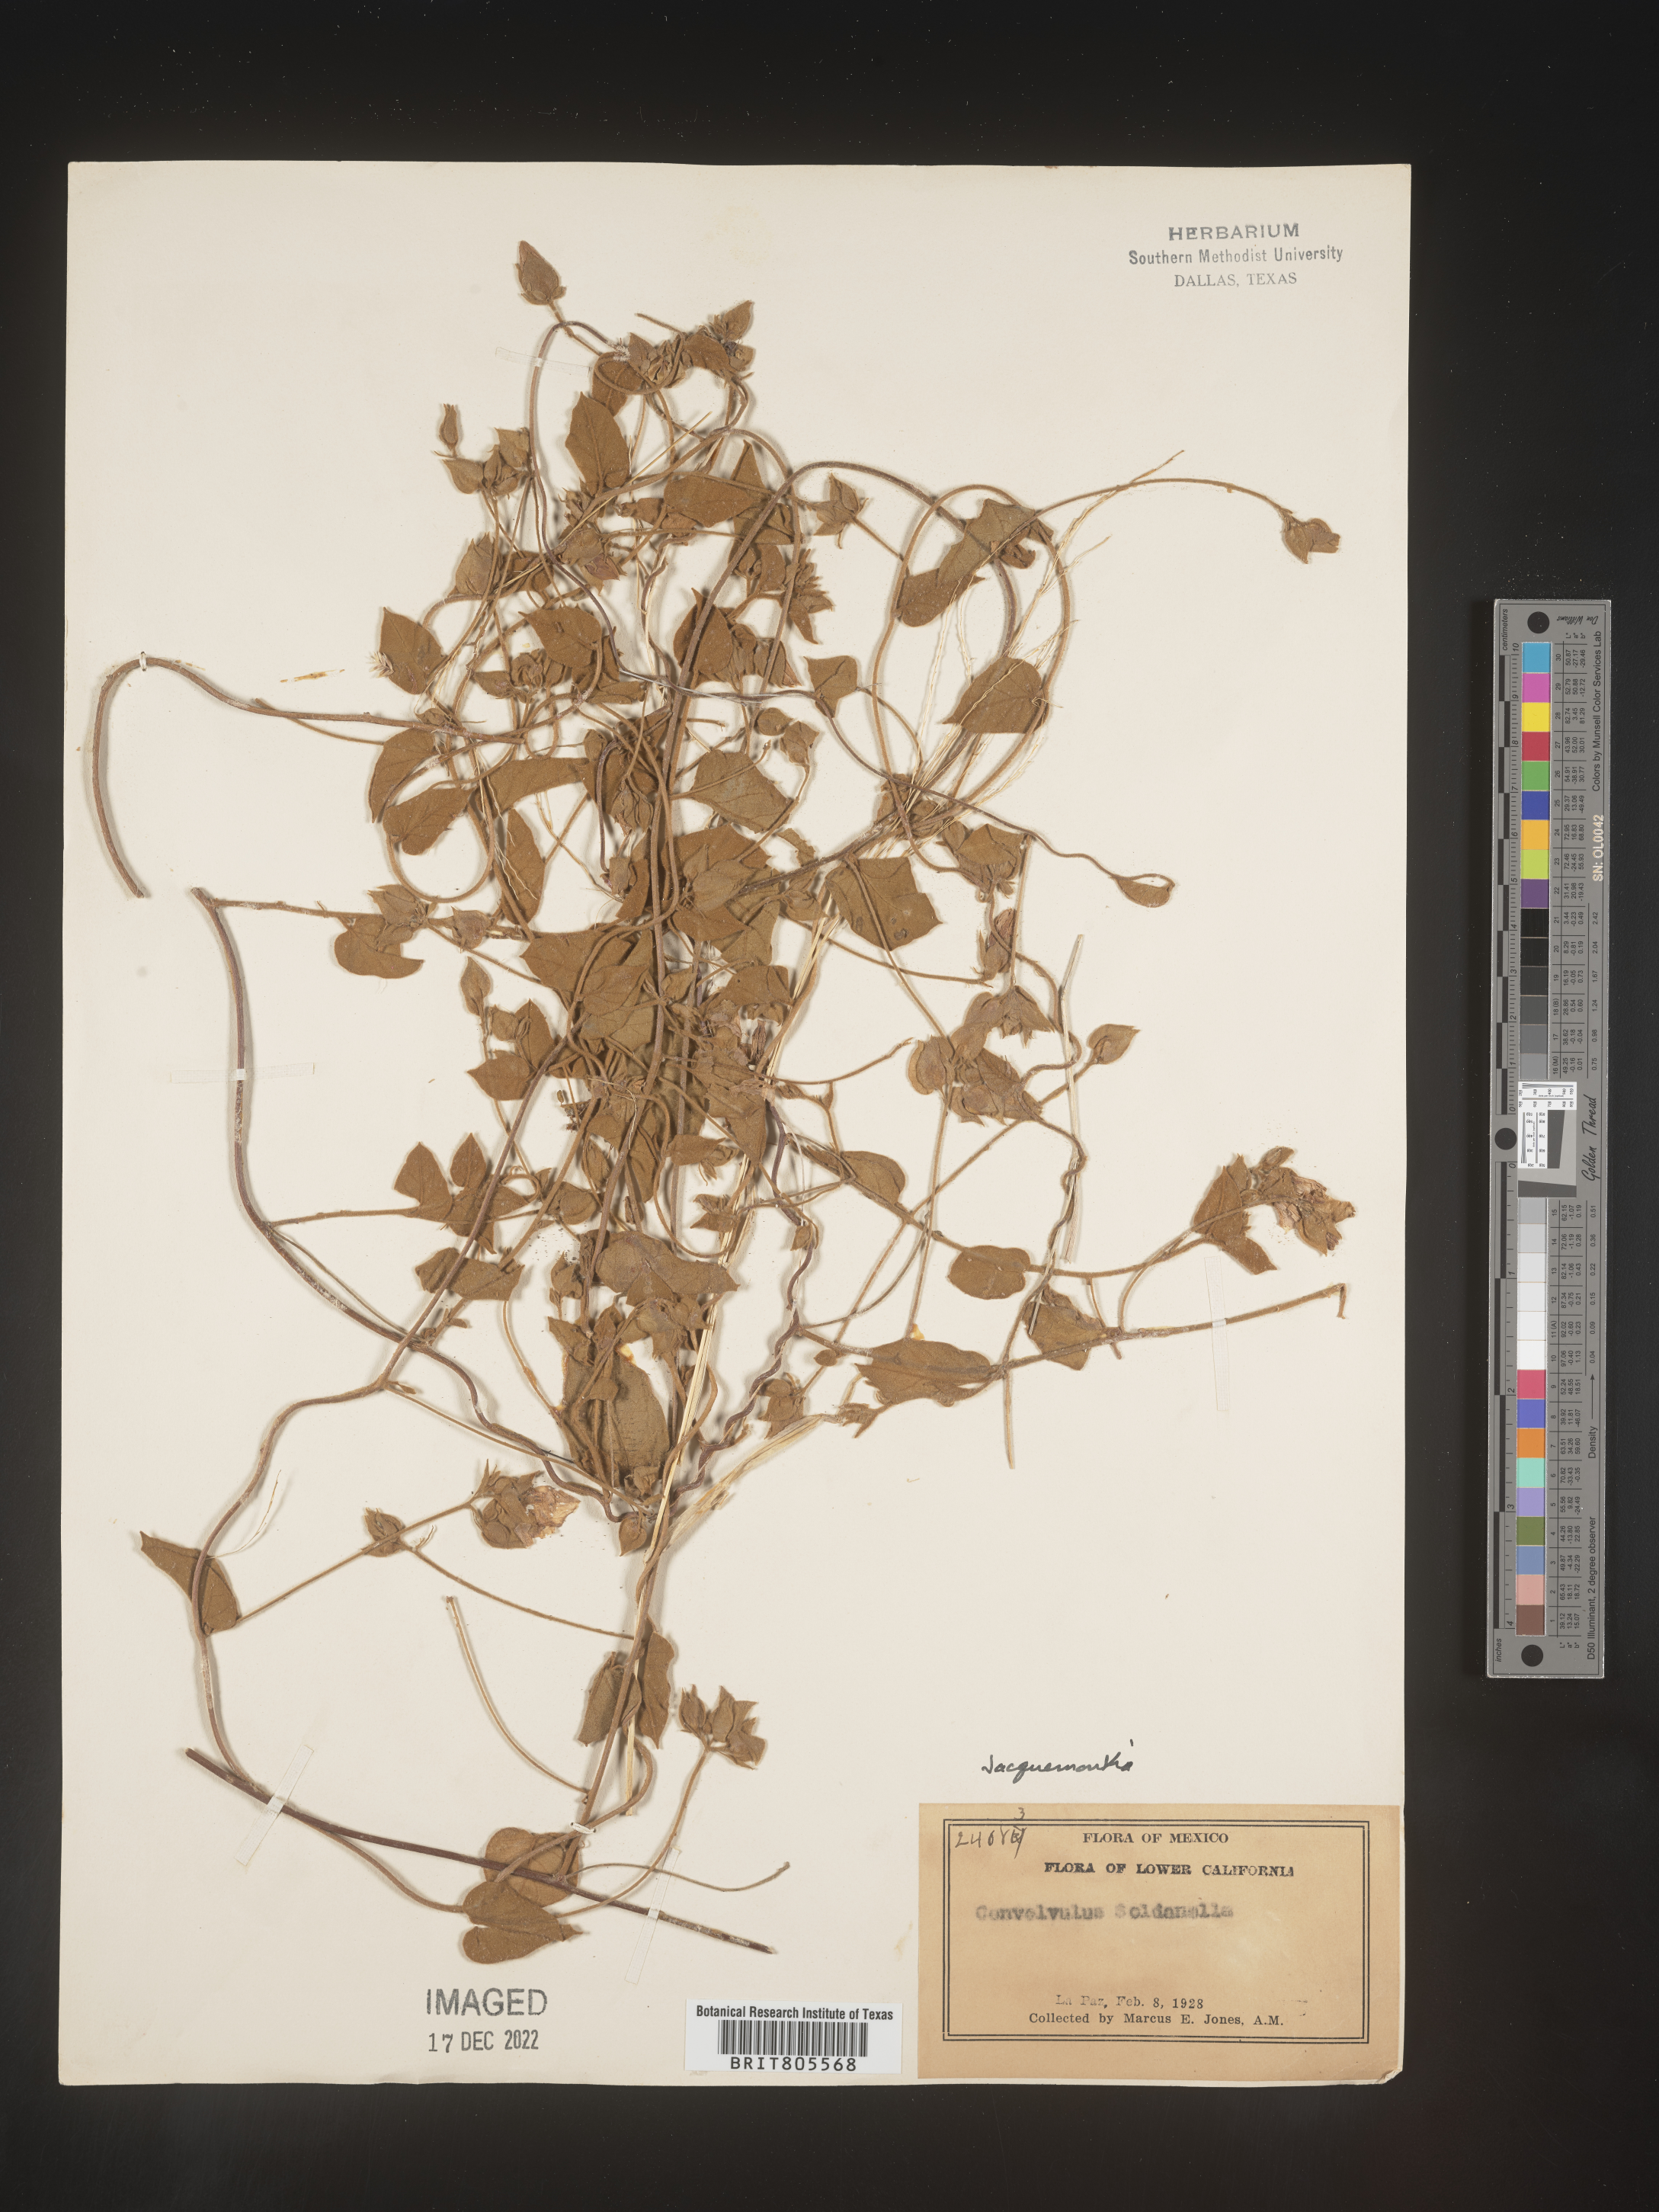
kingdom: Plantae
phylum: Tracheophyta
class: Magnoliopsida
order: Solanales
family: Convolvulaceae
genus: Jacquemontia
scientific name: Jacquemontia
